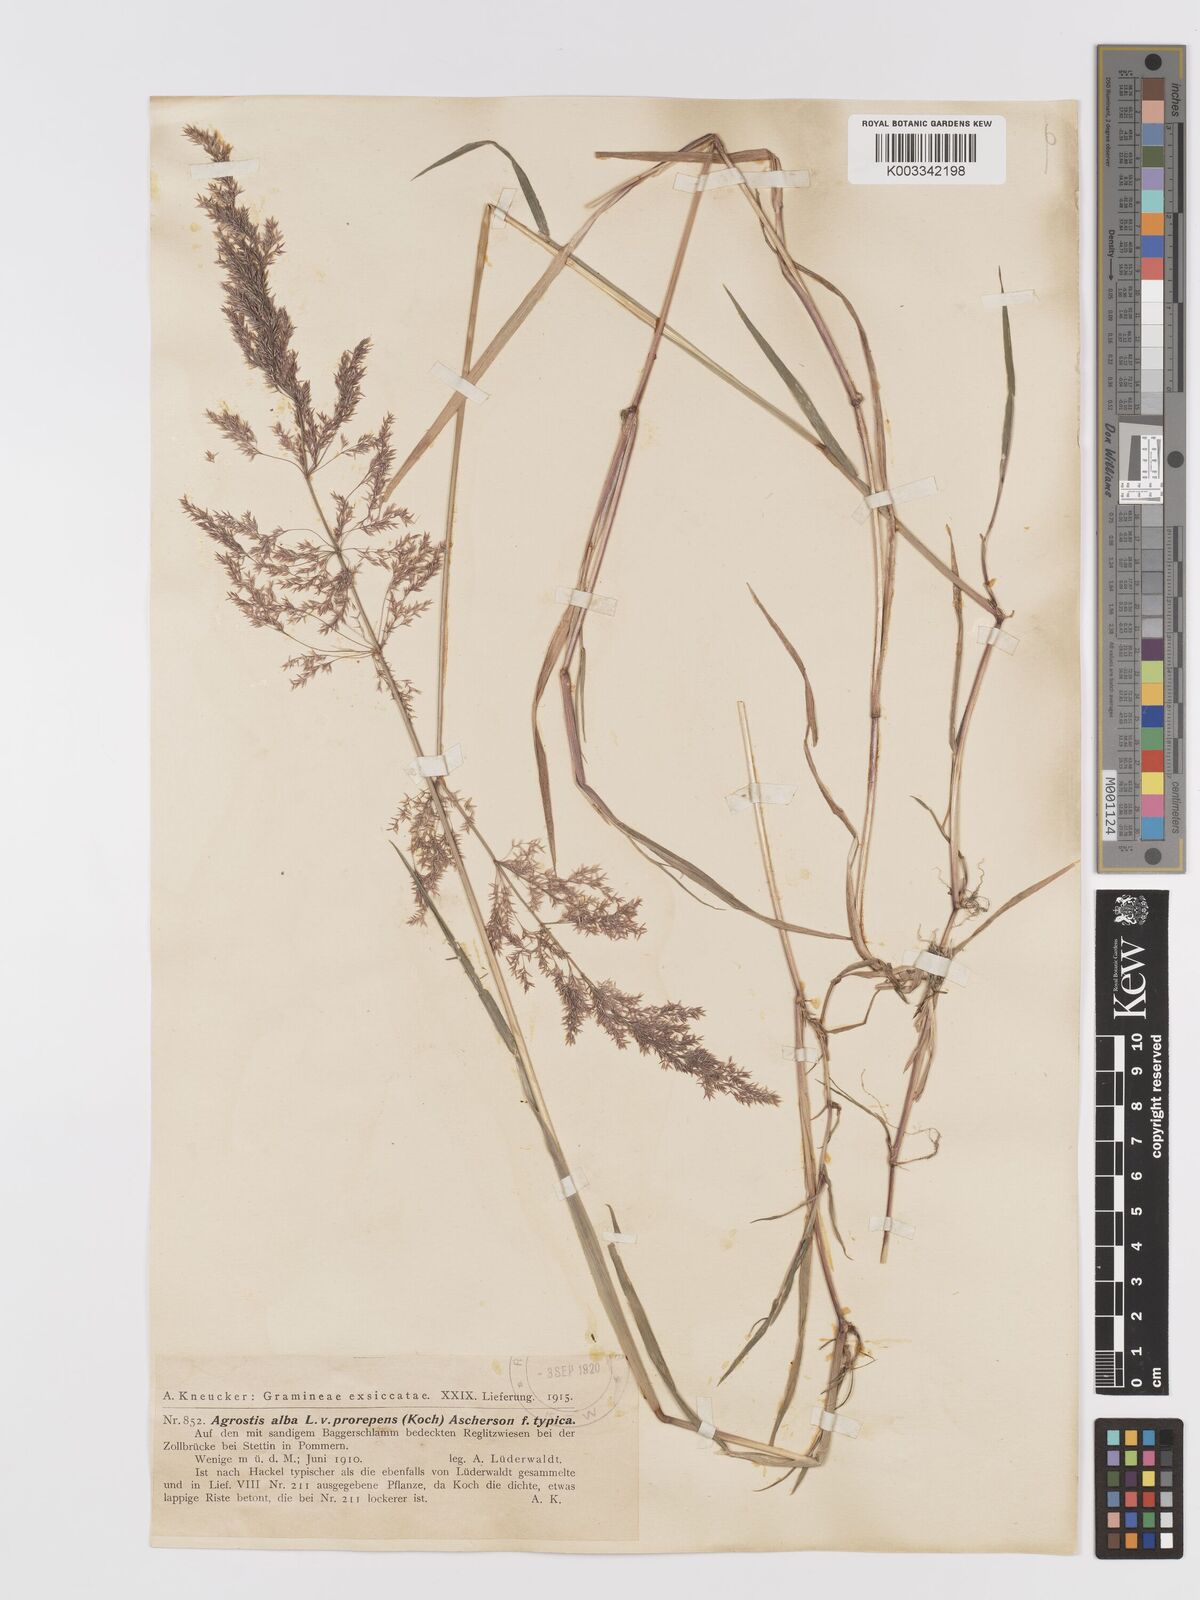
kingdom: Plantae
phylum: Tracheophyta
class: Liliopsida
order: Poales
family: Poaceae
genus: Agrostis
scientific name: Agrostis stolonifera
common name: Creeping bentgrass
